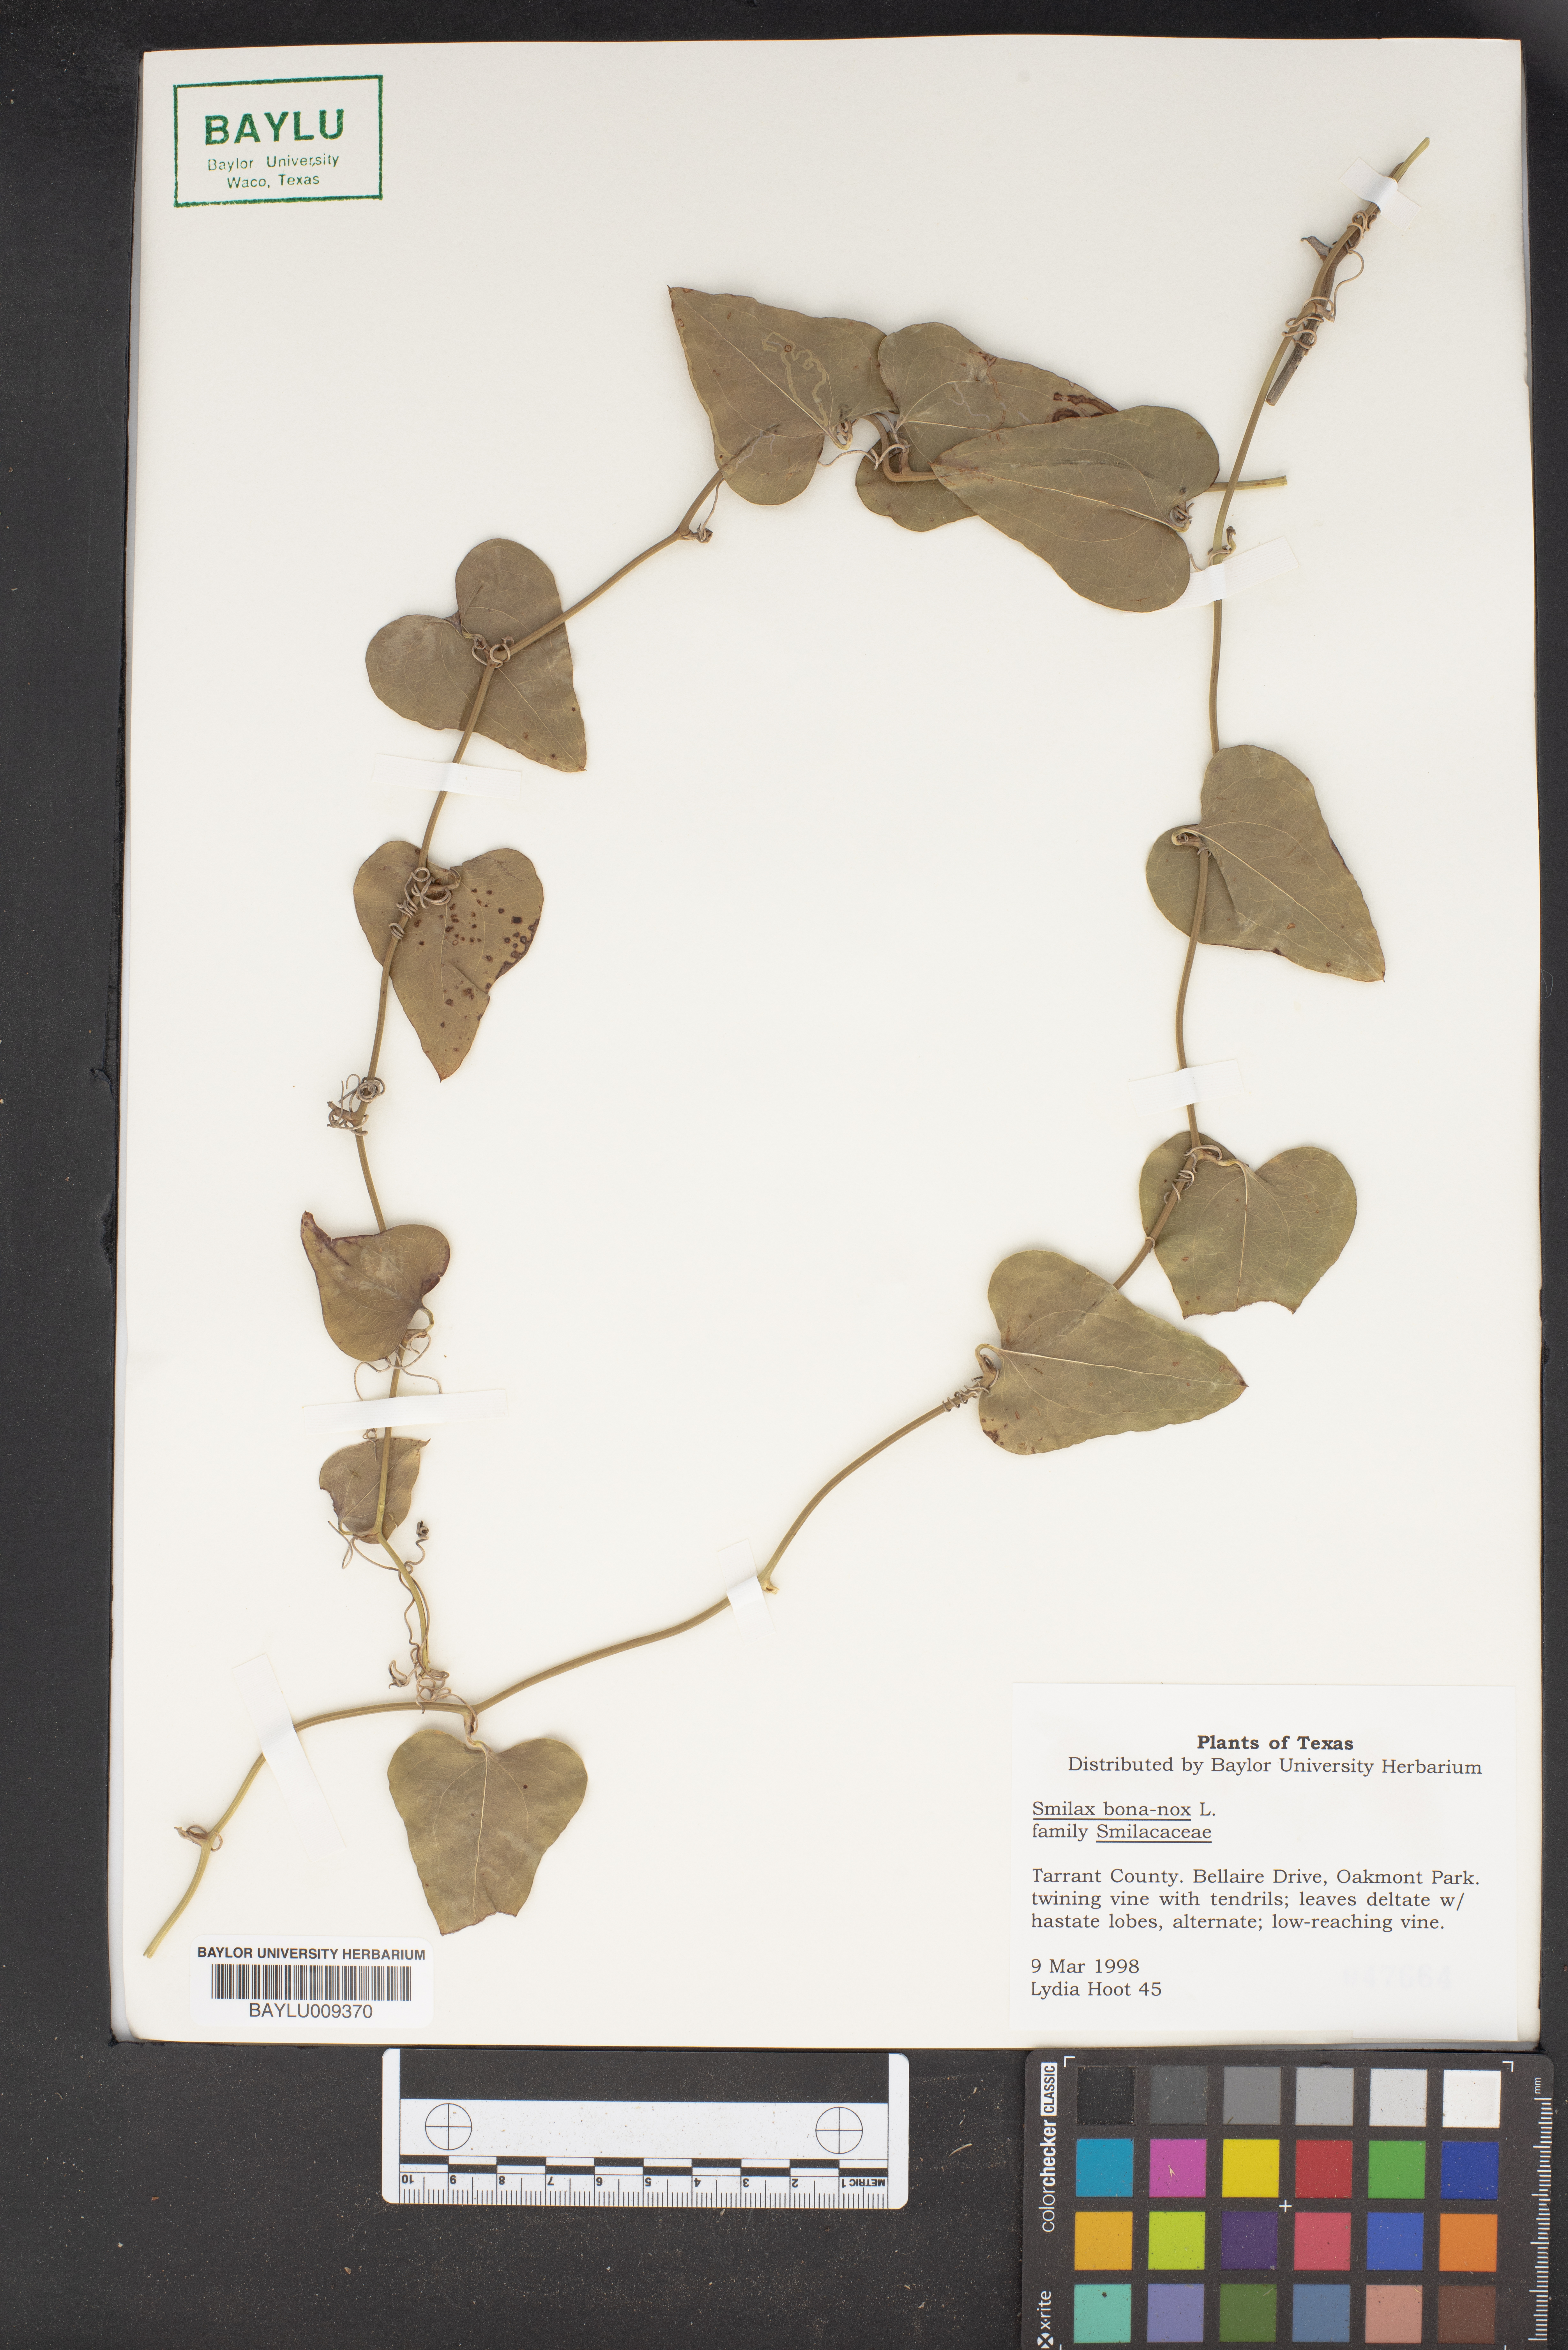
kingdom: Plantae
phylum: Tracheophyta
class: Liliopsida
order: Liliales
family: Smilacaceae
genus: Smilax
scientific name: Smilax bona-nox
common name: Catbrier
